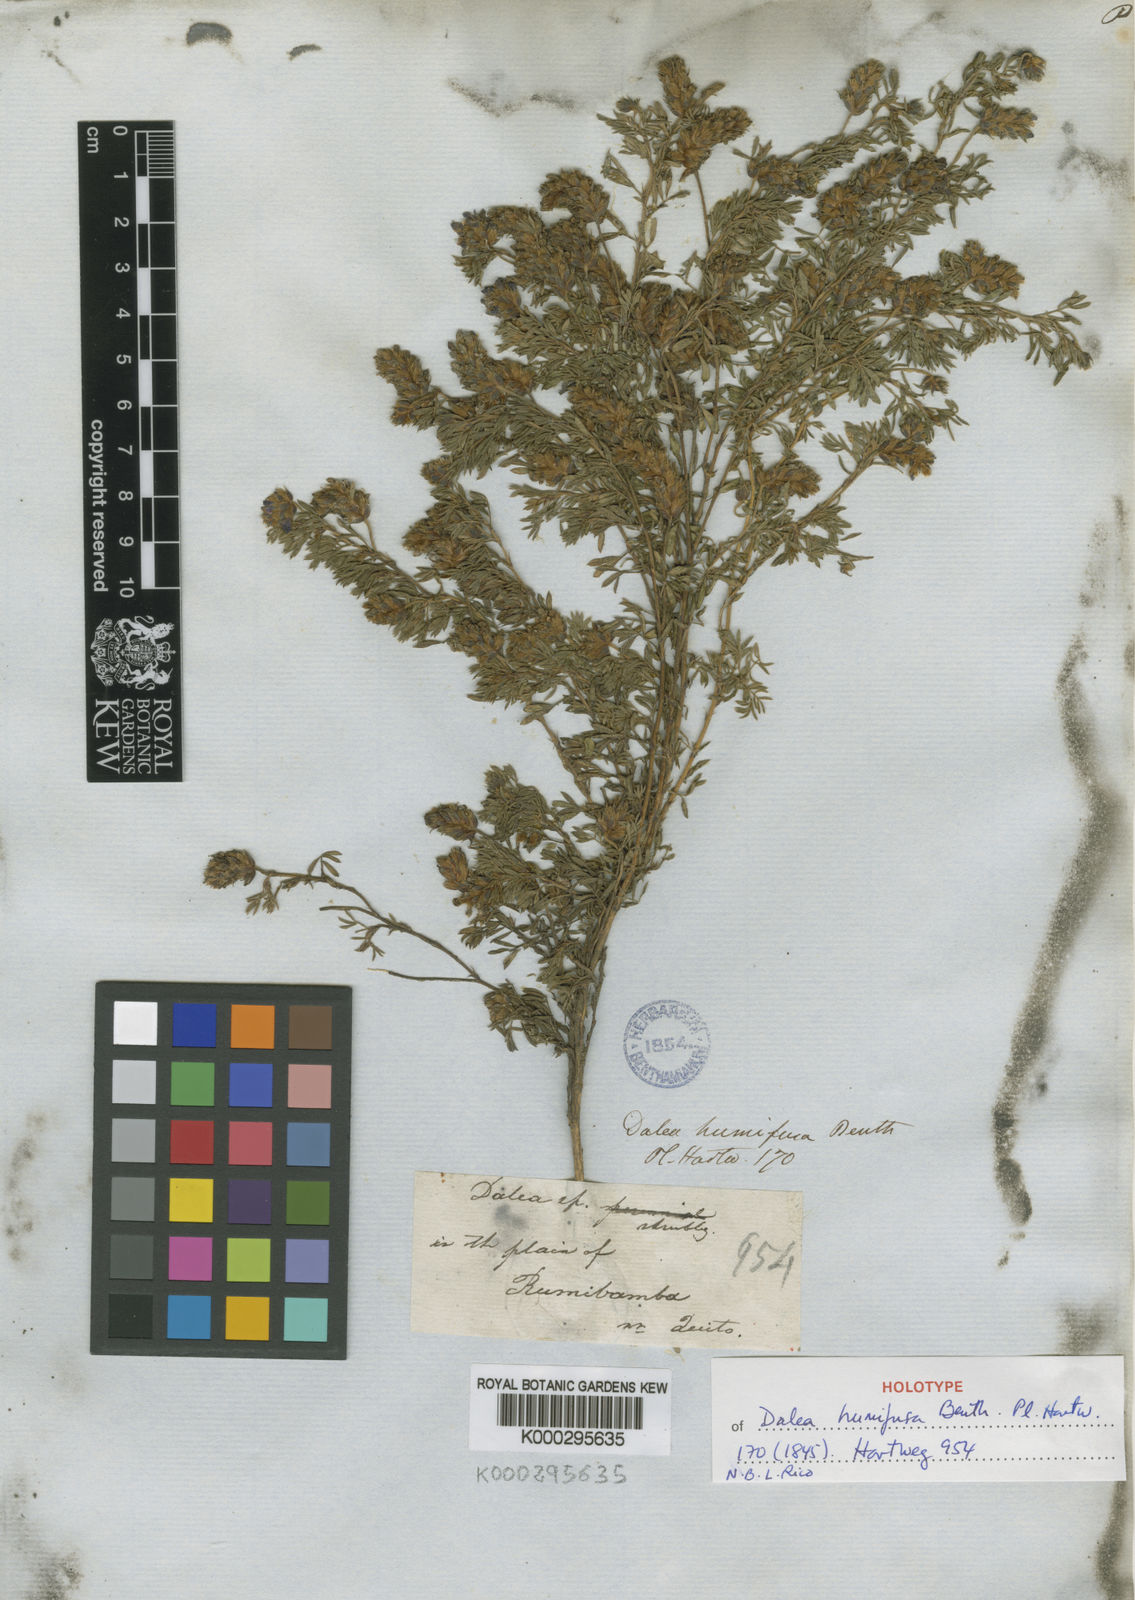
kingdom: Plantae
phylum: Tracheophyta
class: Magnoliopsida
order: Fabales
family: Fabaceae
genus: Dalea
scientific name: Dalea humifusa
